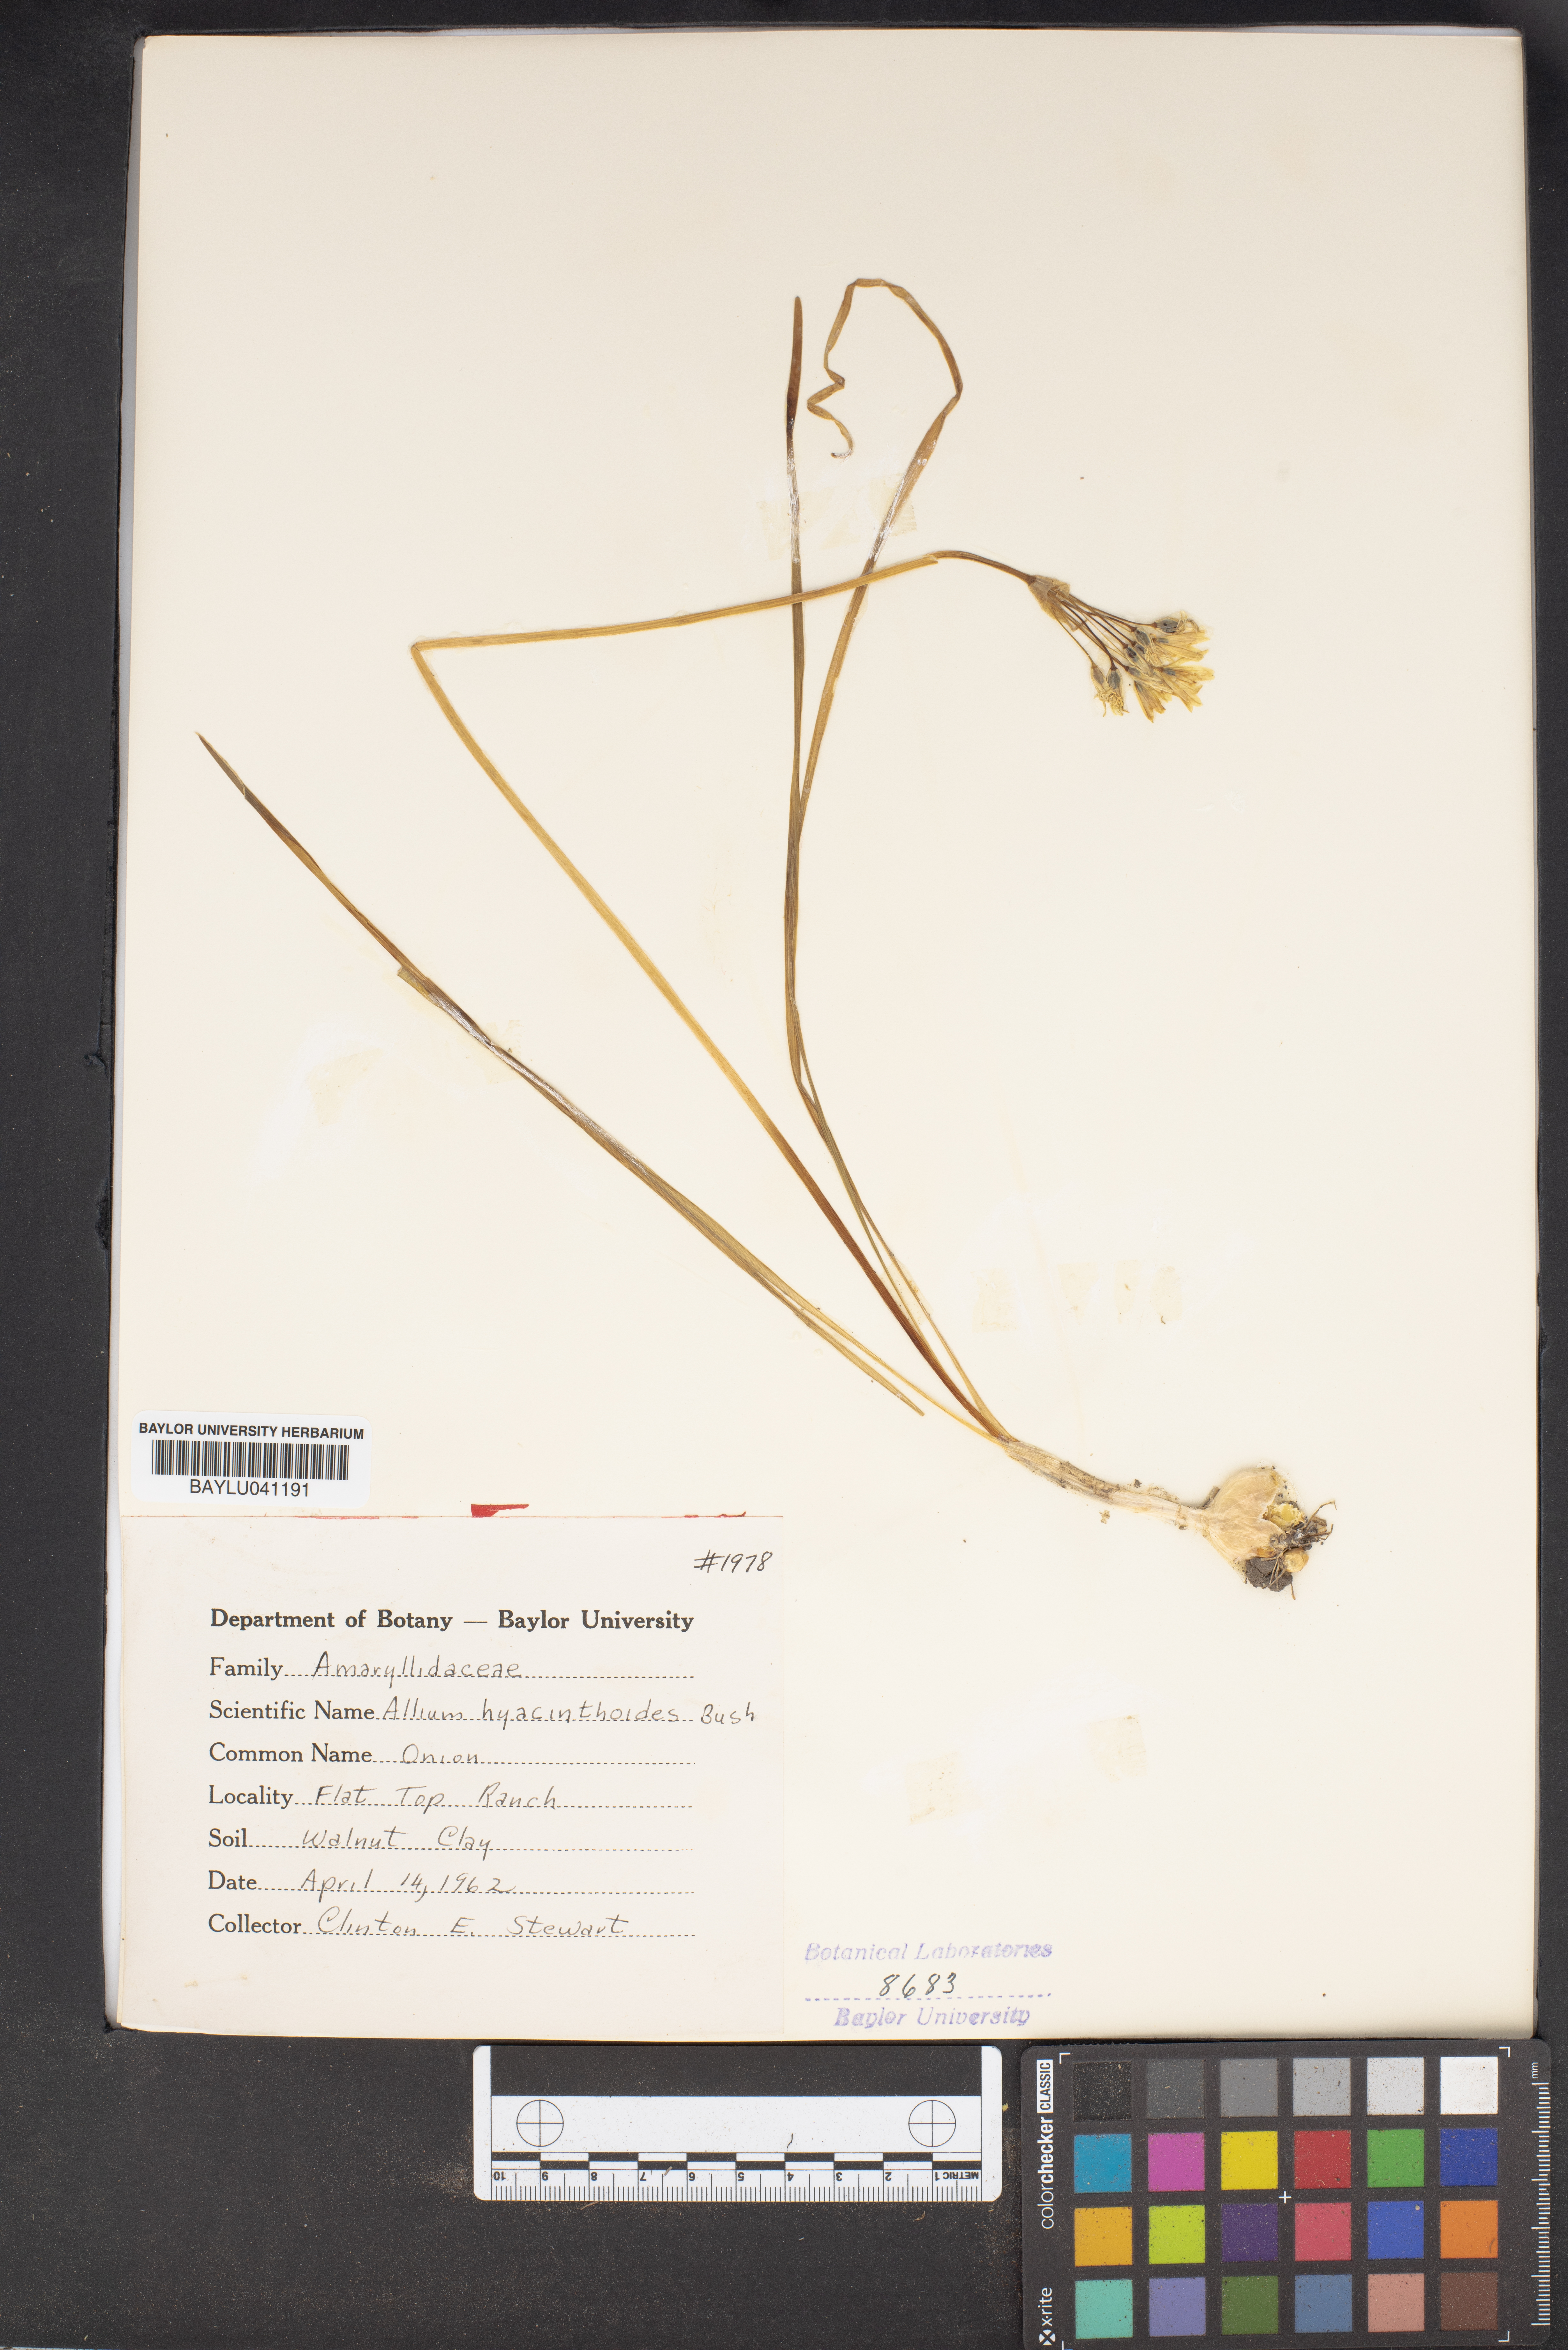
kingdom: Plantae
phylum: Tracheophyta
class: Liliopsida
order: Asparagales
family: Amaryllidaceae
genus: Allium
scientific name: Allium canadense
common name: Meadow garlic
